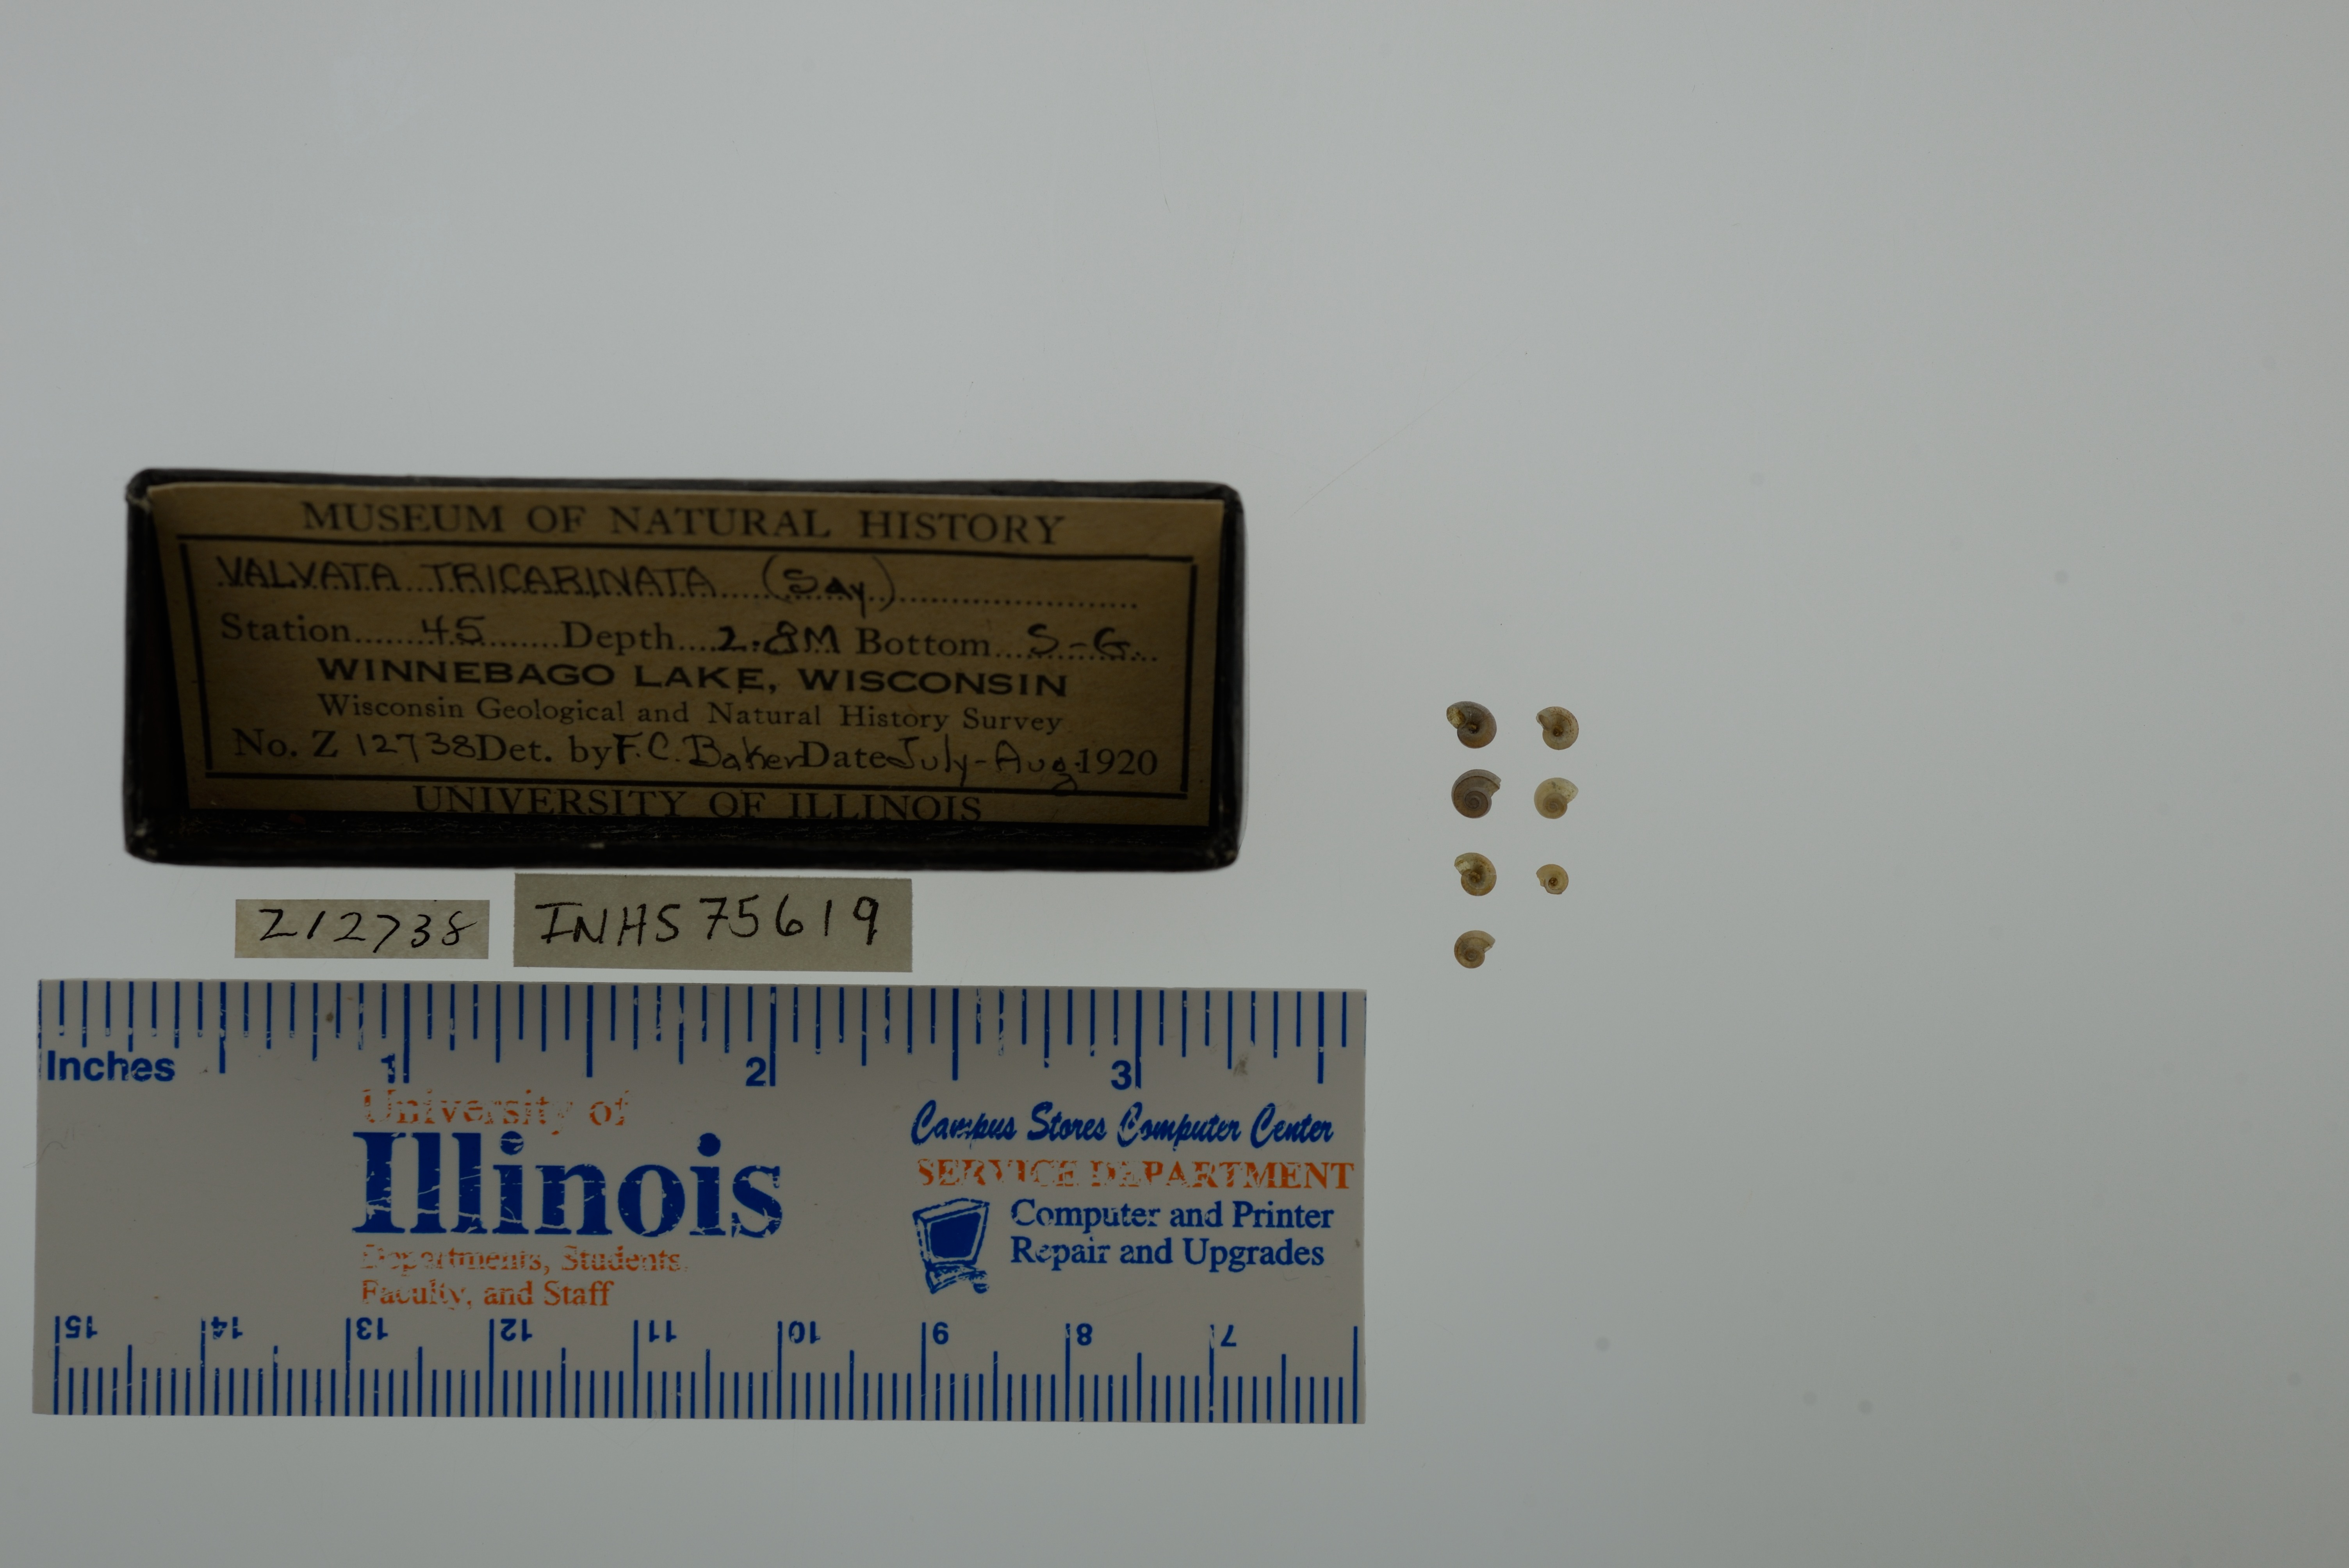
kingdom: Animalia
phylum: Mollusca
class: Gastropoda
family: Valvatidae
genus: Valvata
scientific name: Valvata tricarinata
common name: Three-ridge valvata
